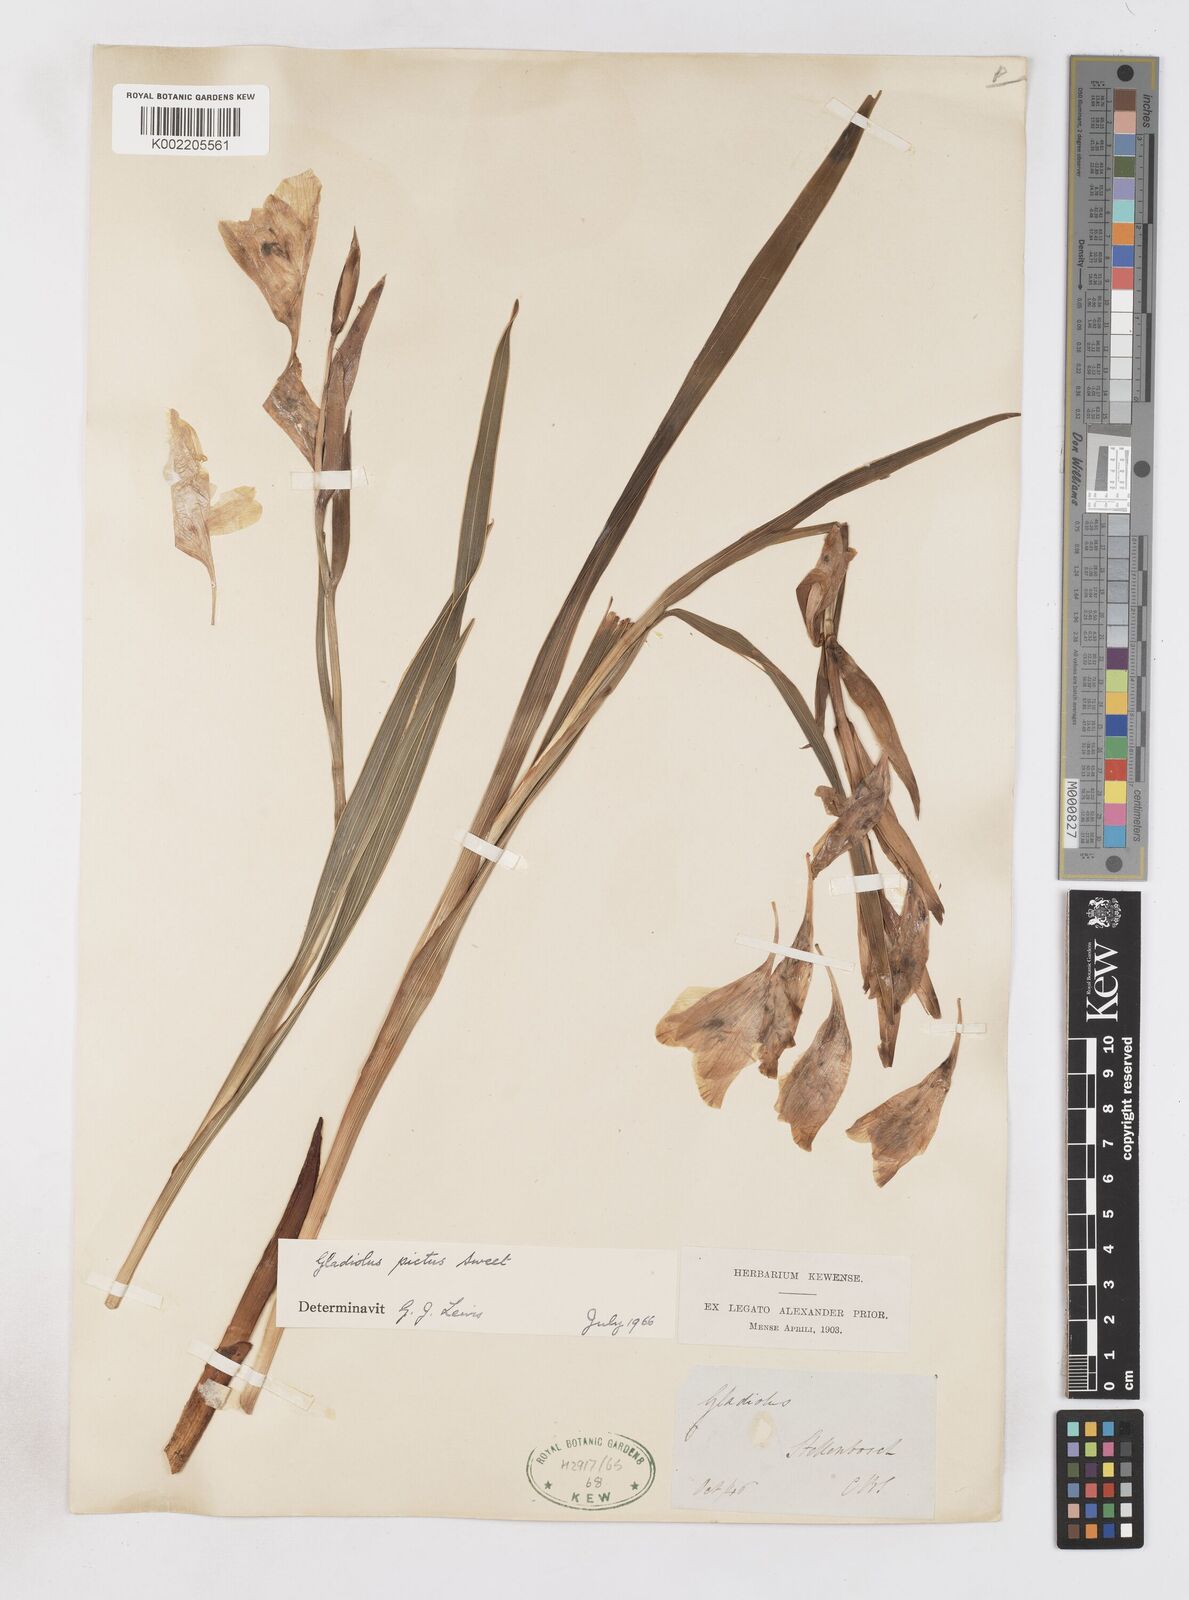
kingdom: Plantae
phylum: Tracheophyta
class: Liliopsida
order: Asparagales
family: Iridaceae
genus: Gladiolus
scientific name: Gladiolus carneus
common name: Painted-lady
